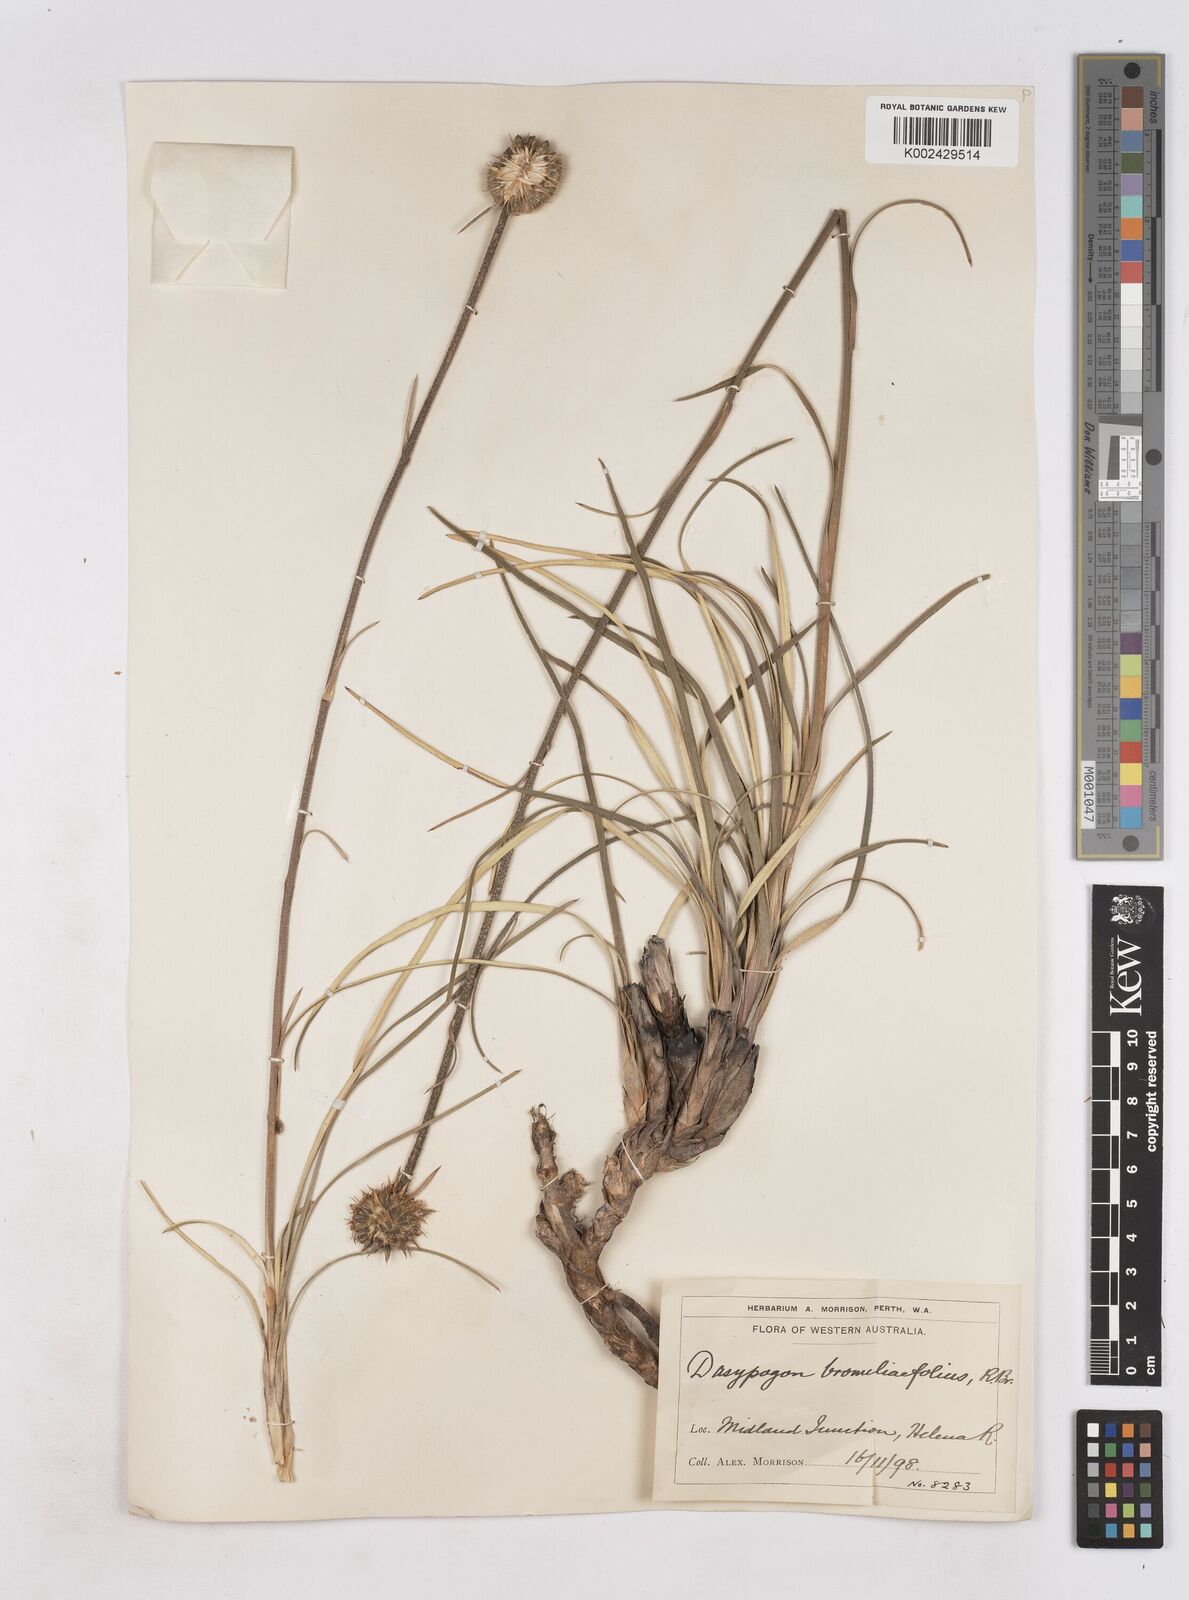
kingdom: Plantae
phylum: Tracheophyta
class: Liliopsida
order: Arecales
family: Dasypogonaceae
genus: Dasypogon
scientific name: Dasypogon bromeliifolius
